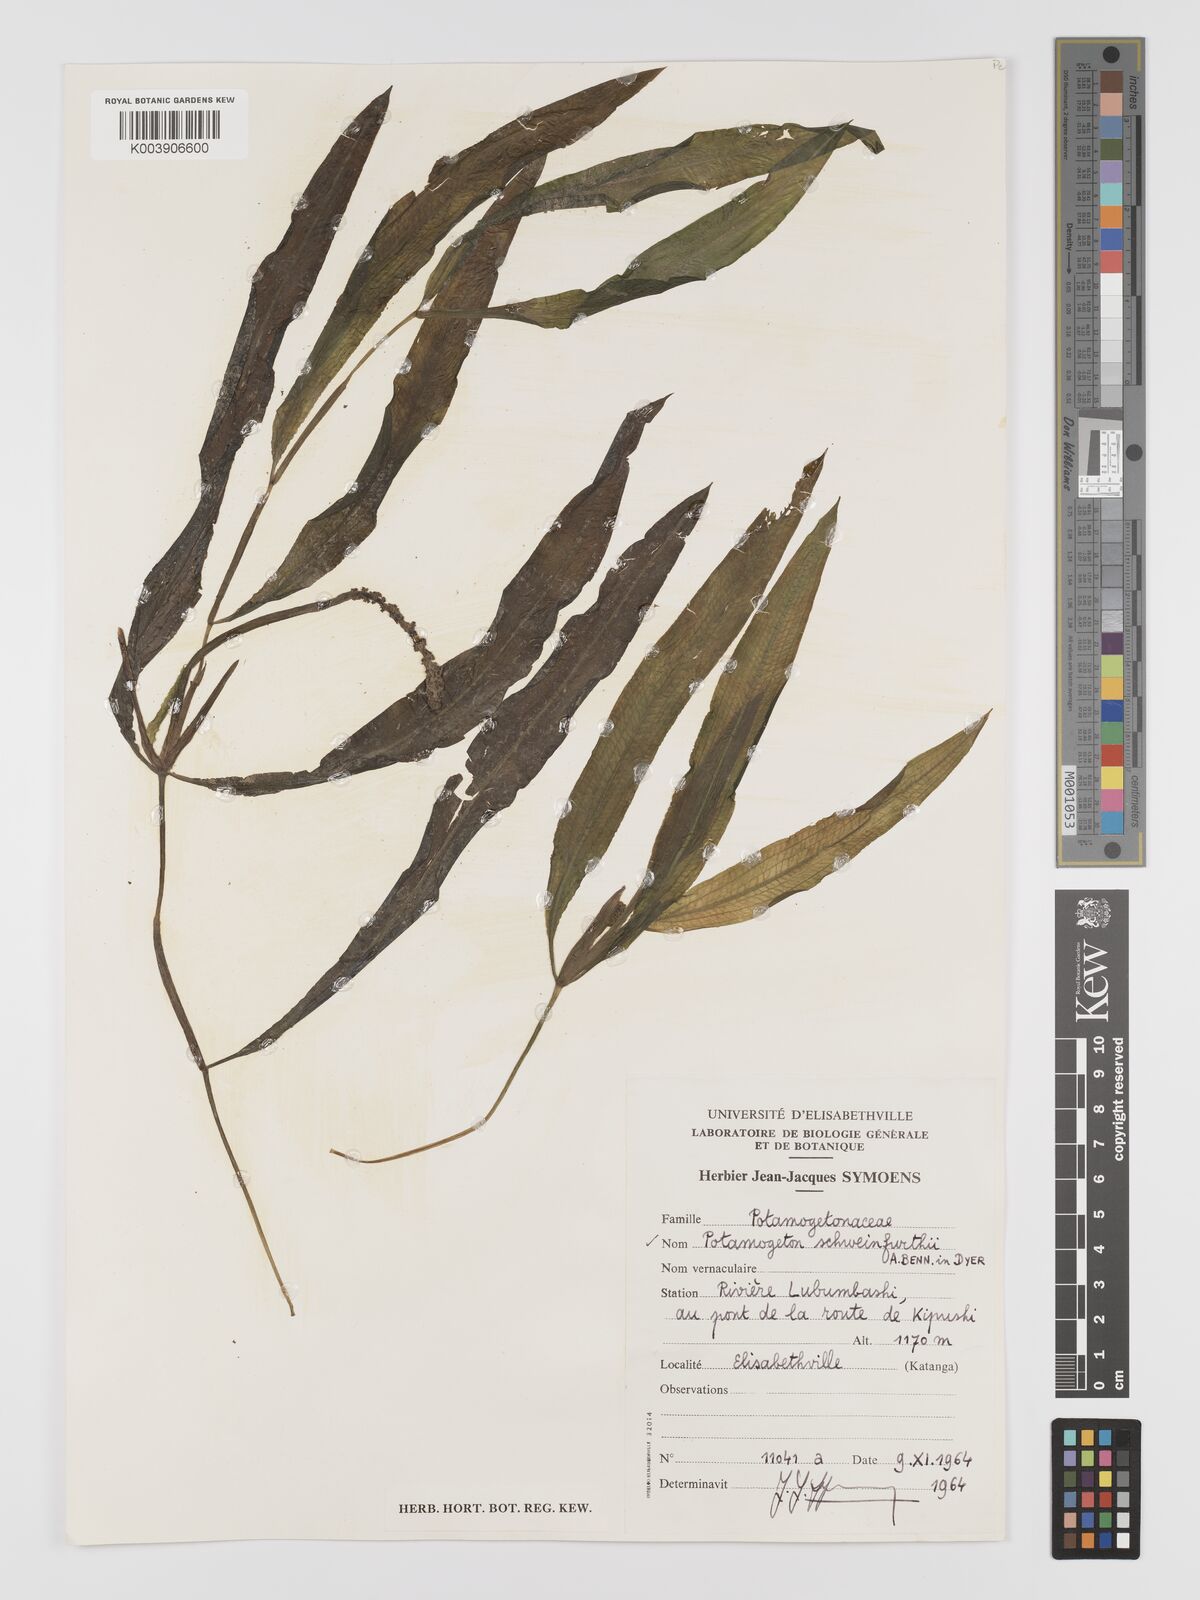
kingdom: Plantae
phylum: Tracheophyta
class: Liliopsida
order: Alismatales
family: Potamogetonaceae
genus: Potamogeton
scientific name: Potamogeton schweinfurthii
